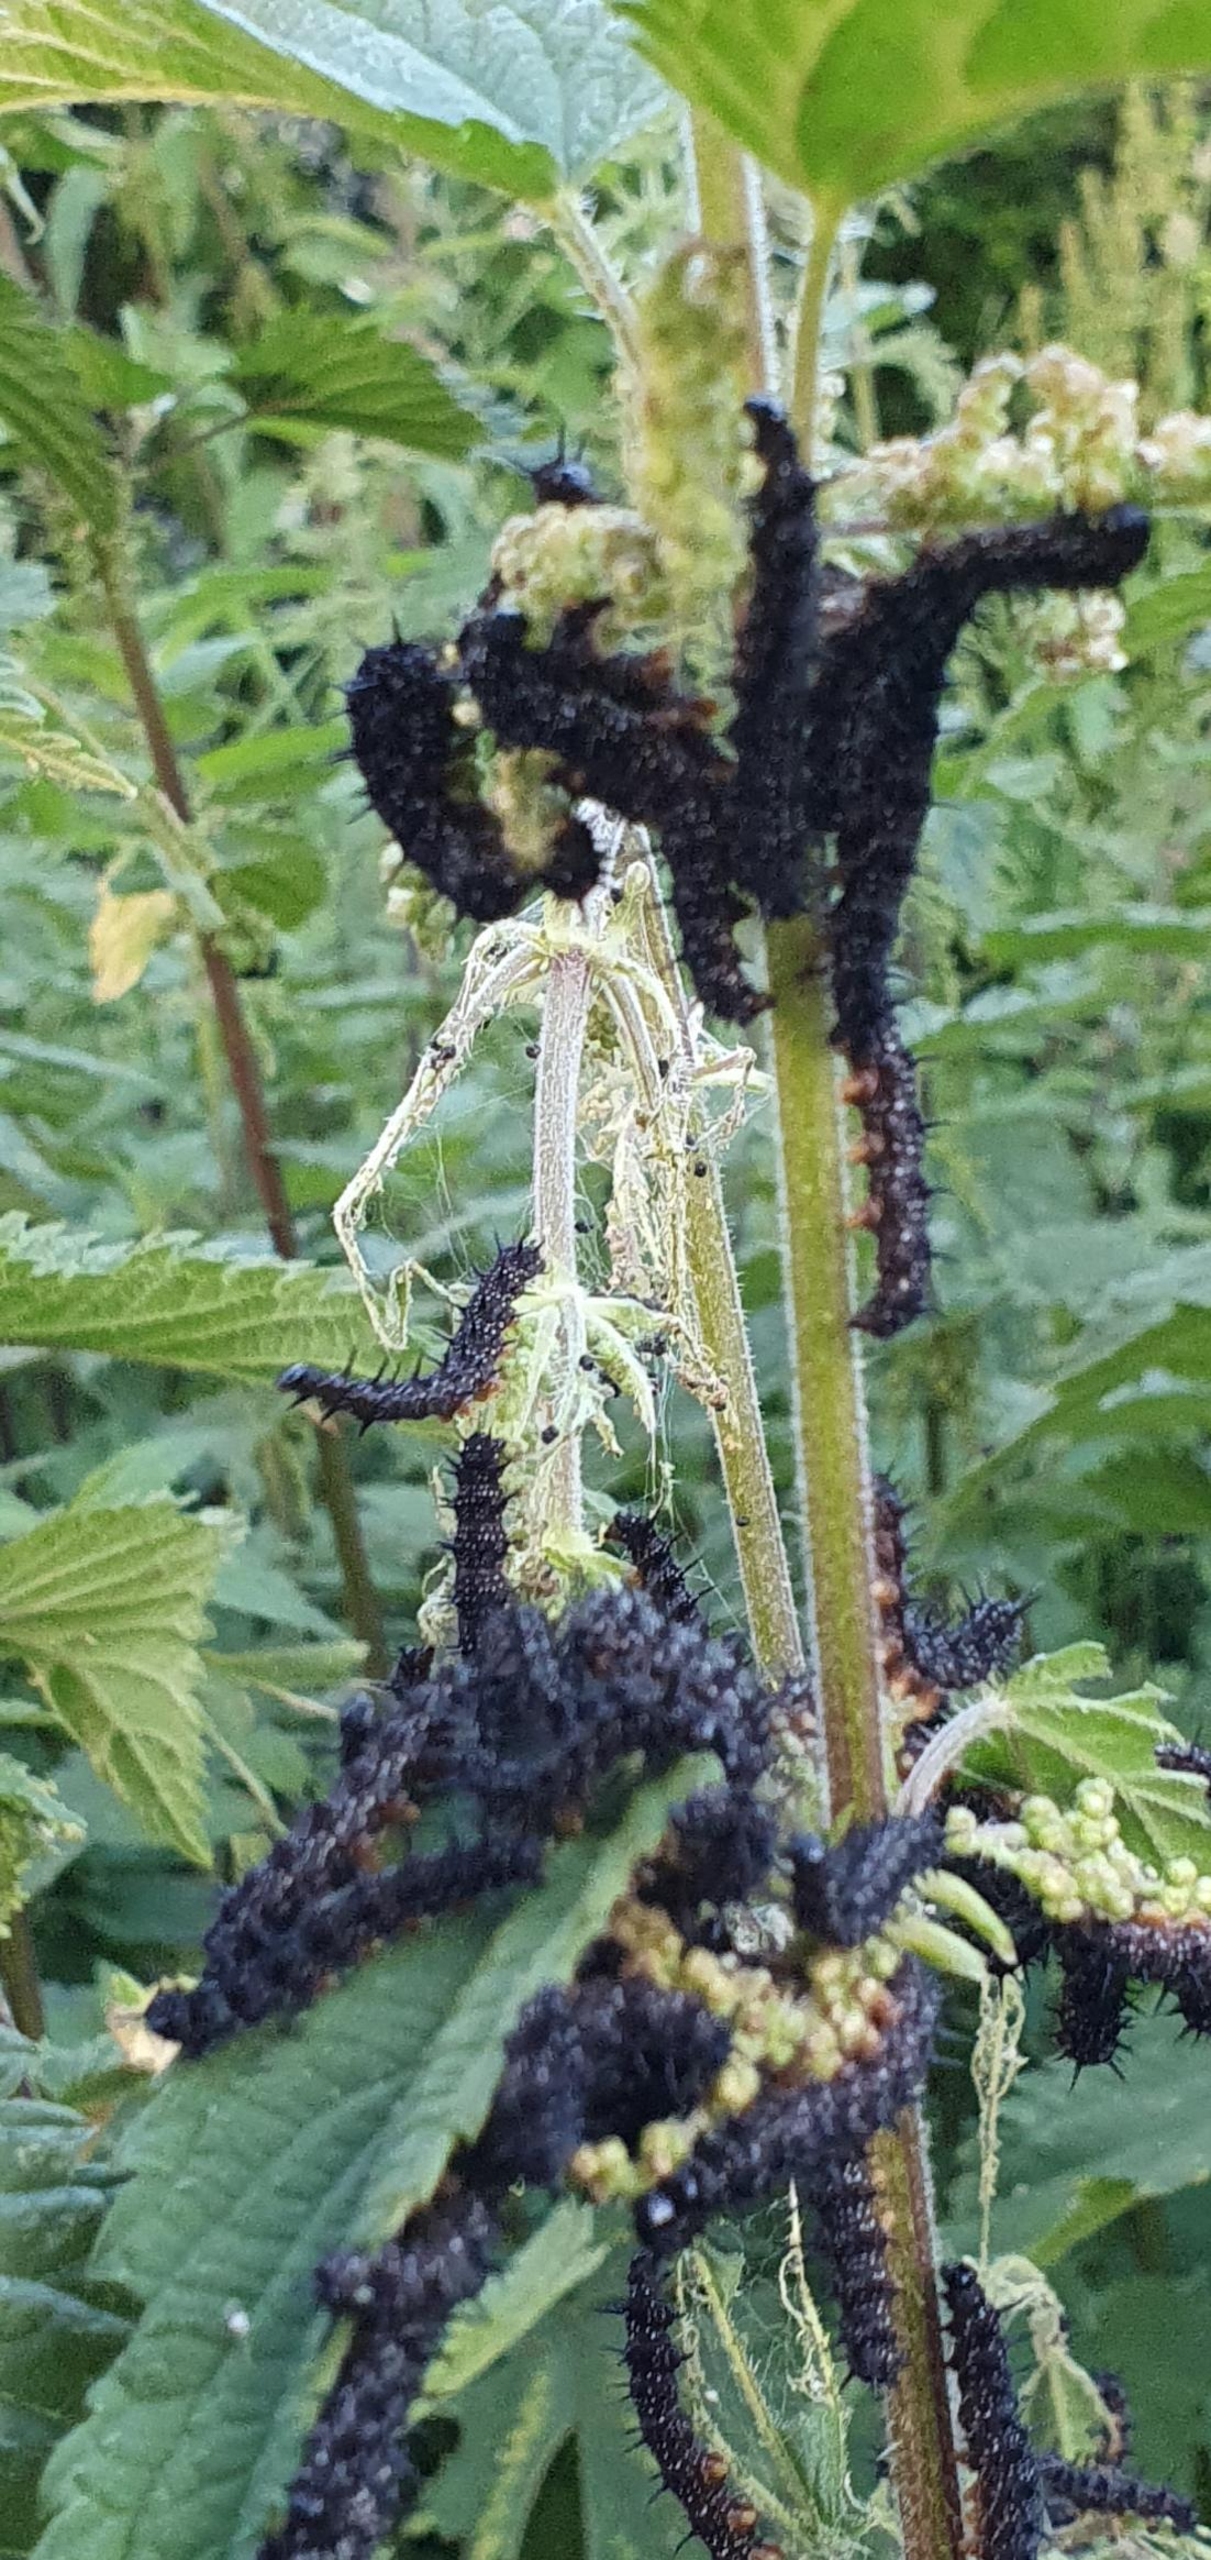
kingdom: Animalia
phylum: Arthropoda
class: Insecta
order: Lepidoptera
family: Nymphalidae
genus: Aglais
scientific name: Aglais io
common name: Dagpåfugleøje
